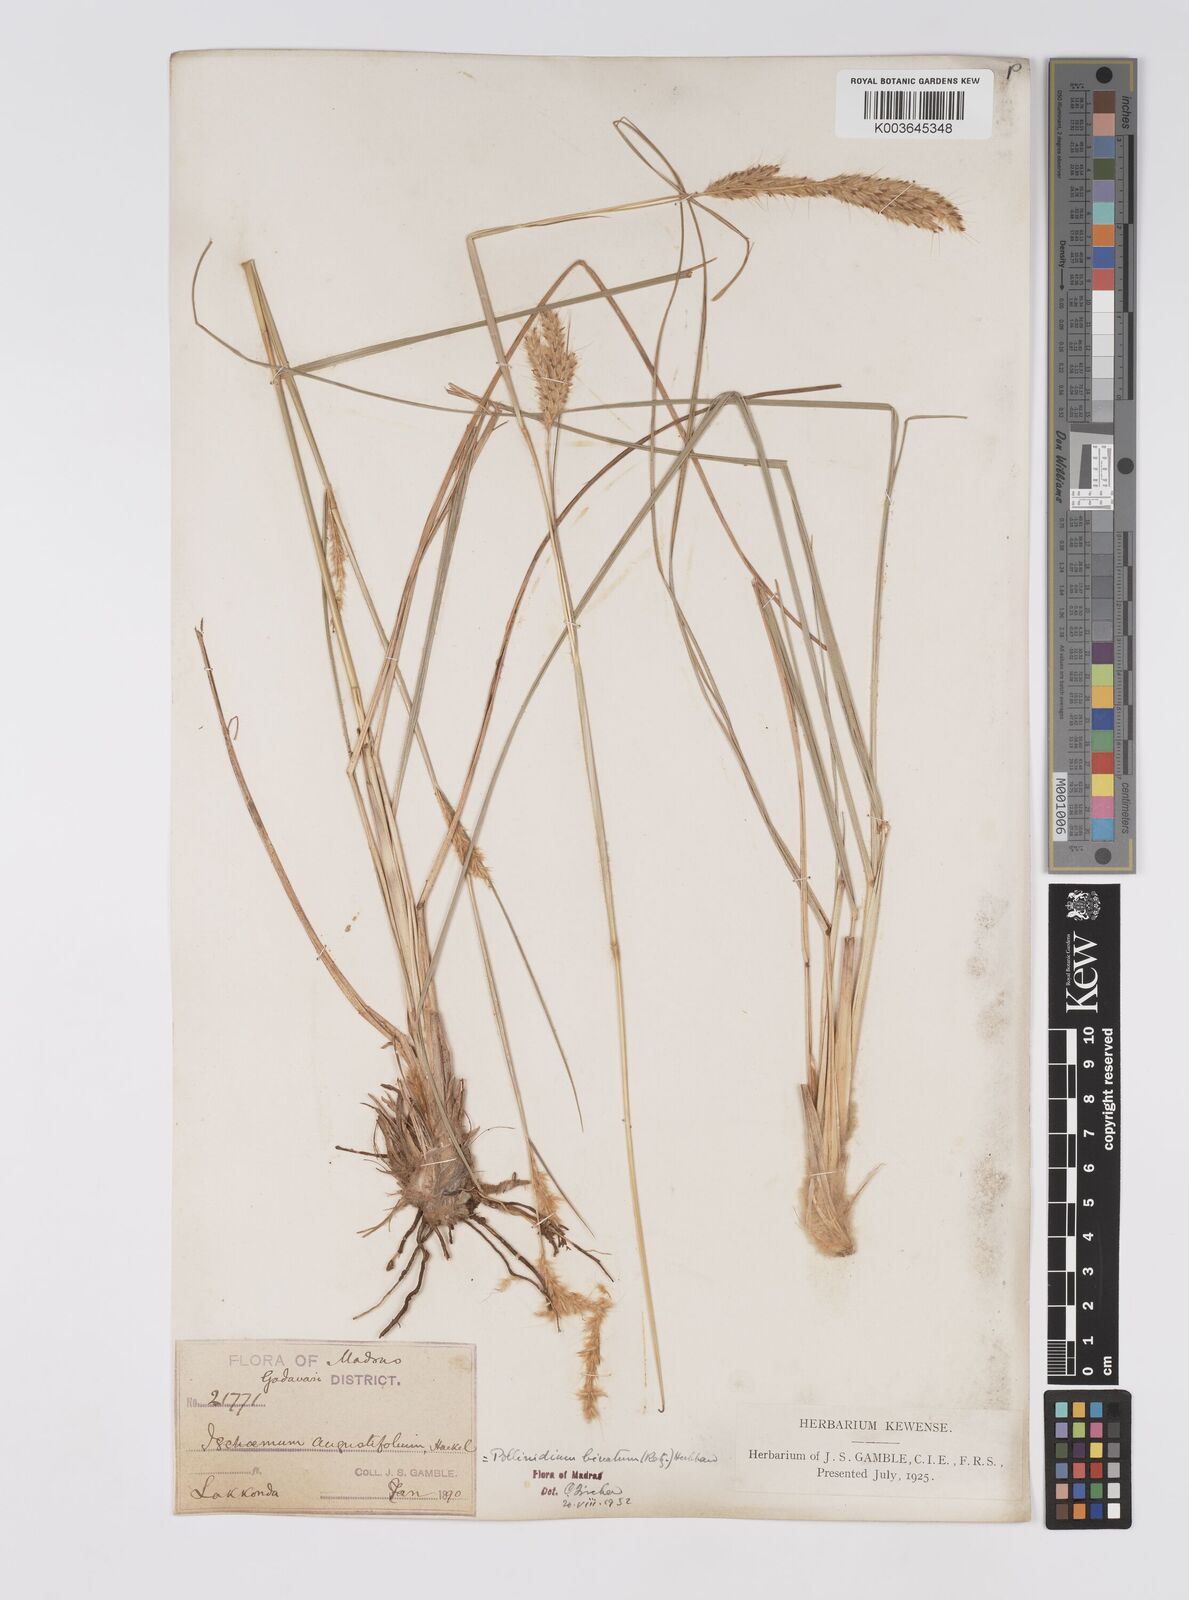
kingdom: Plantae
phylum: Tracheophyta
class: Liliopsida
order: Poales
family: Poaceae
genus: Eulaliopsis
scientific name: Eulaliopsis binata
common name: Baib grass
